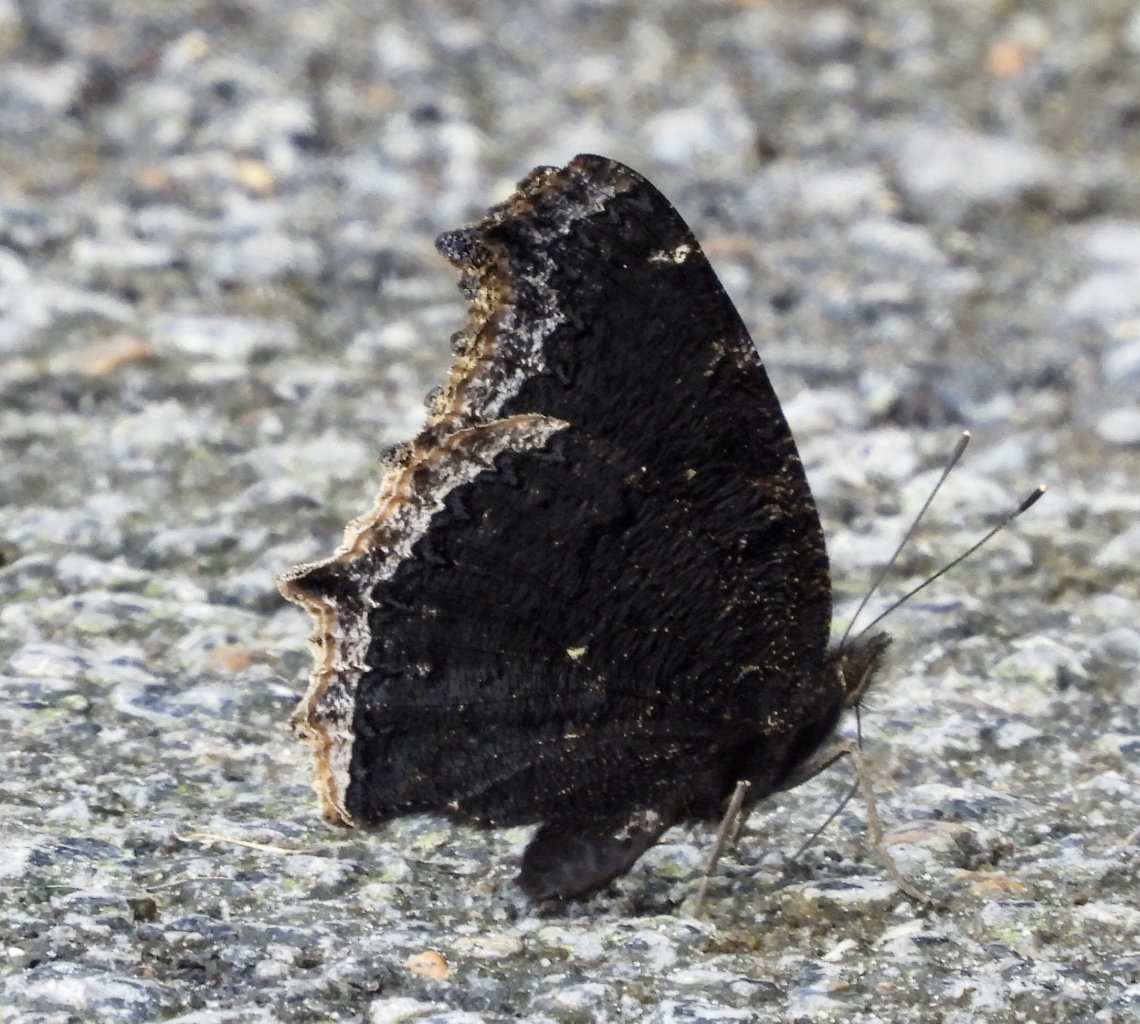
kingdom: Animalia
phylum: Arthropoda
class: Insecta
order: Lepidoptera
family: Nymphalidae
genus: Nymphalis
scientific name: Nymphalis antiopa
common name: Mourning Cloak
